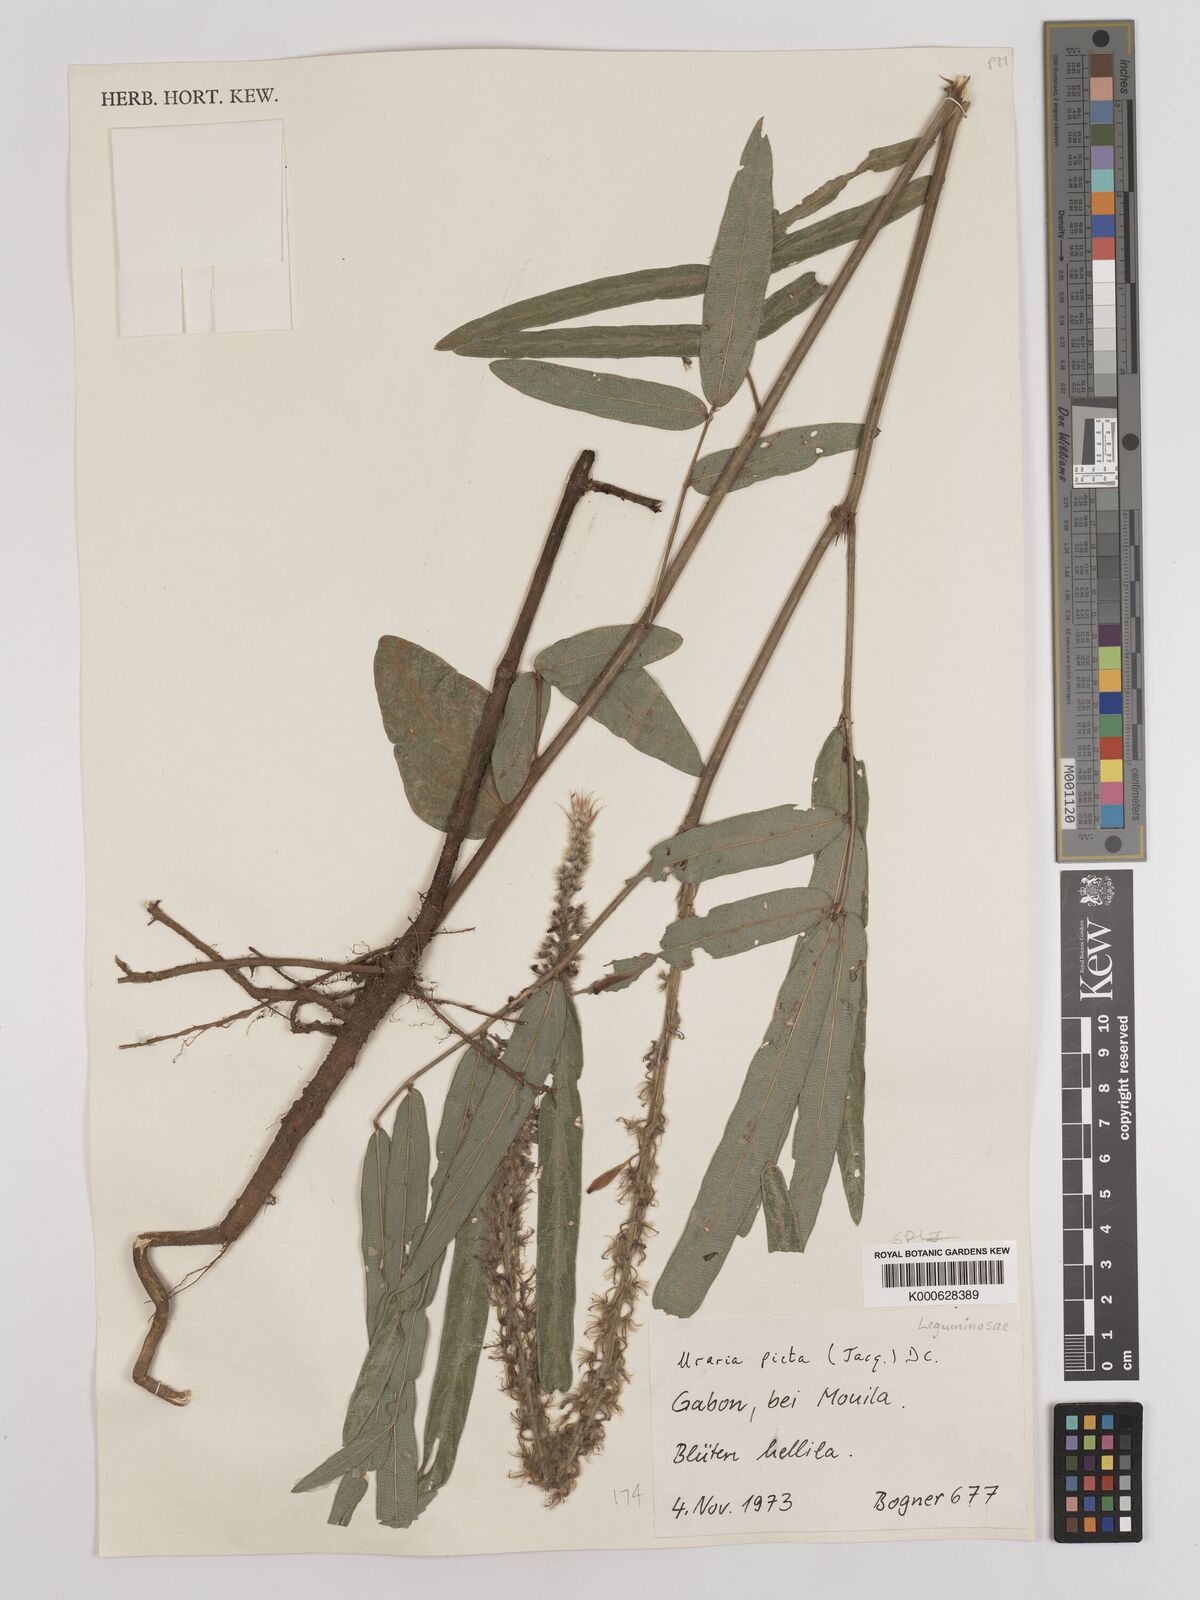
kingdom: Plantae
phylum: Tracheophyta
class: Magnoliopsida
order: Fabales
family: Fabaceae
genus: Uraria
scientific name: Uraria picta
